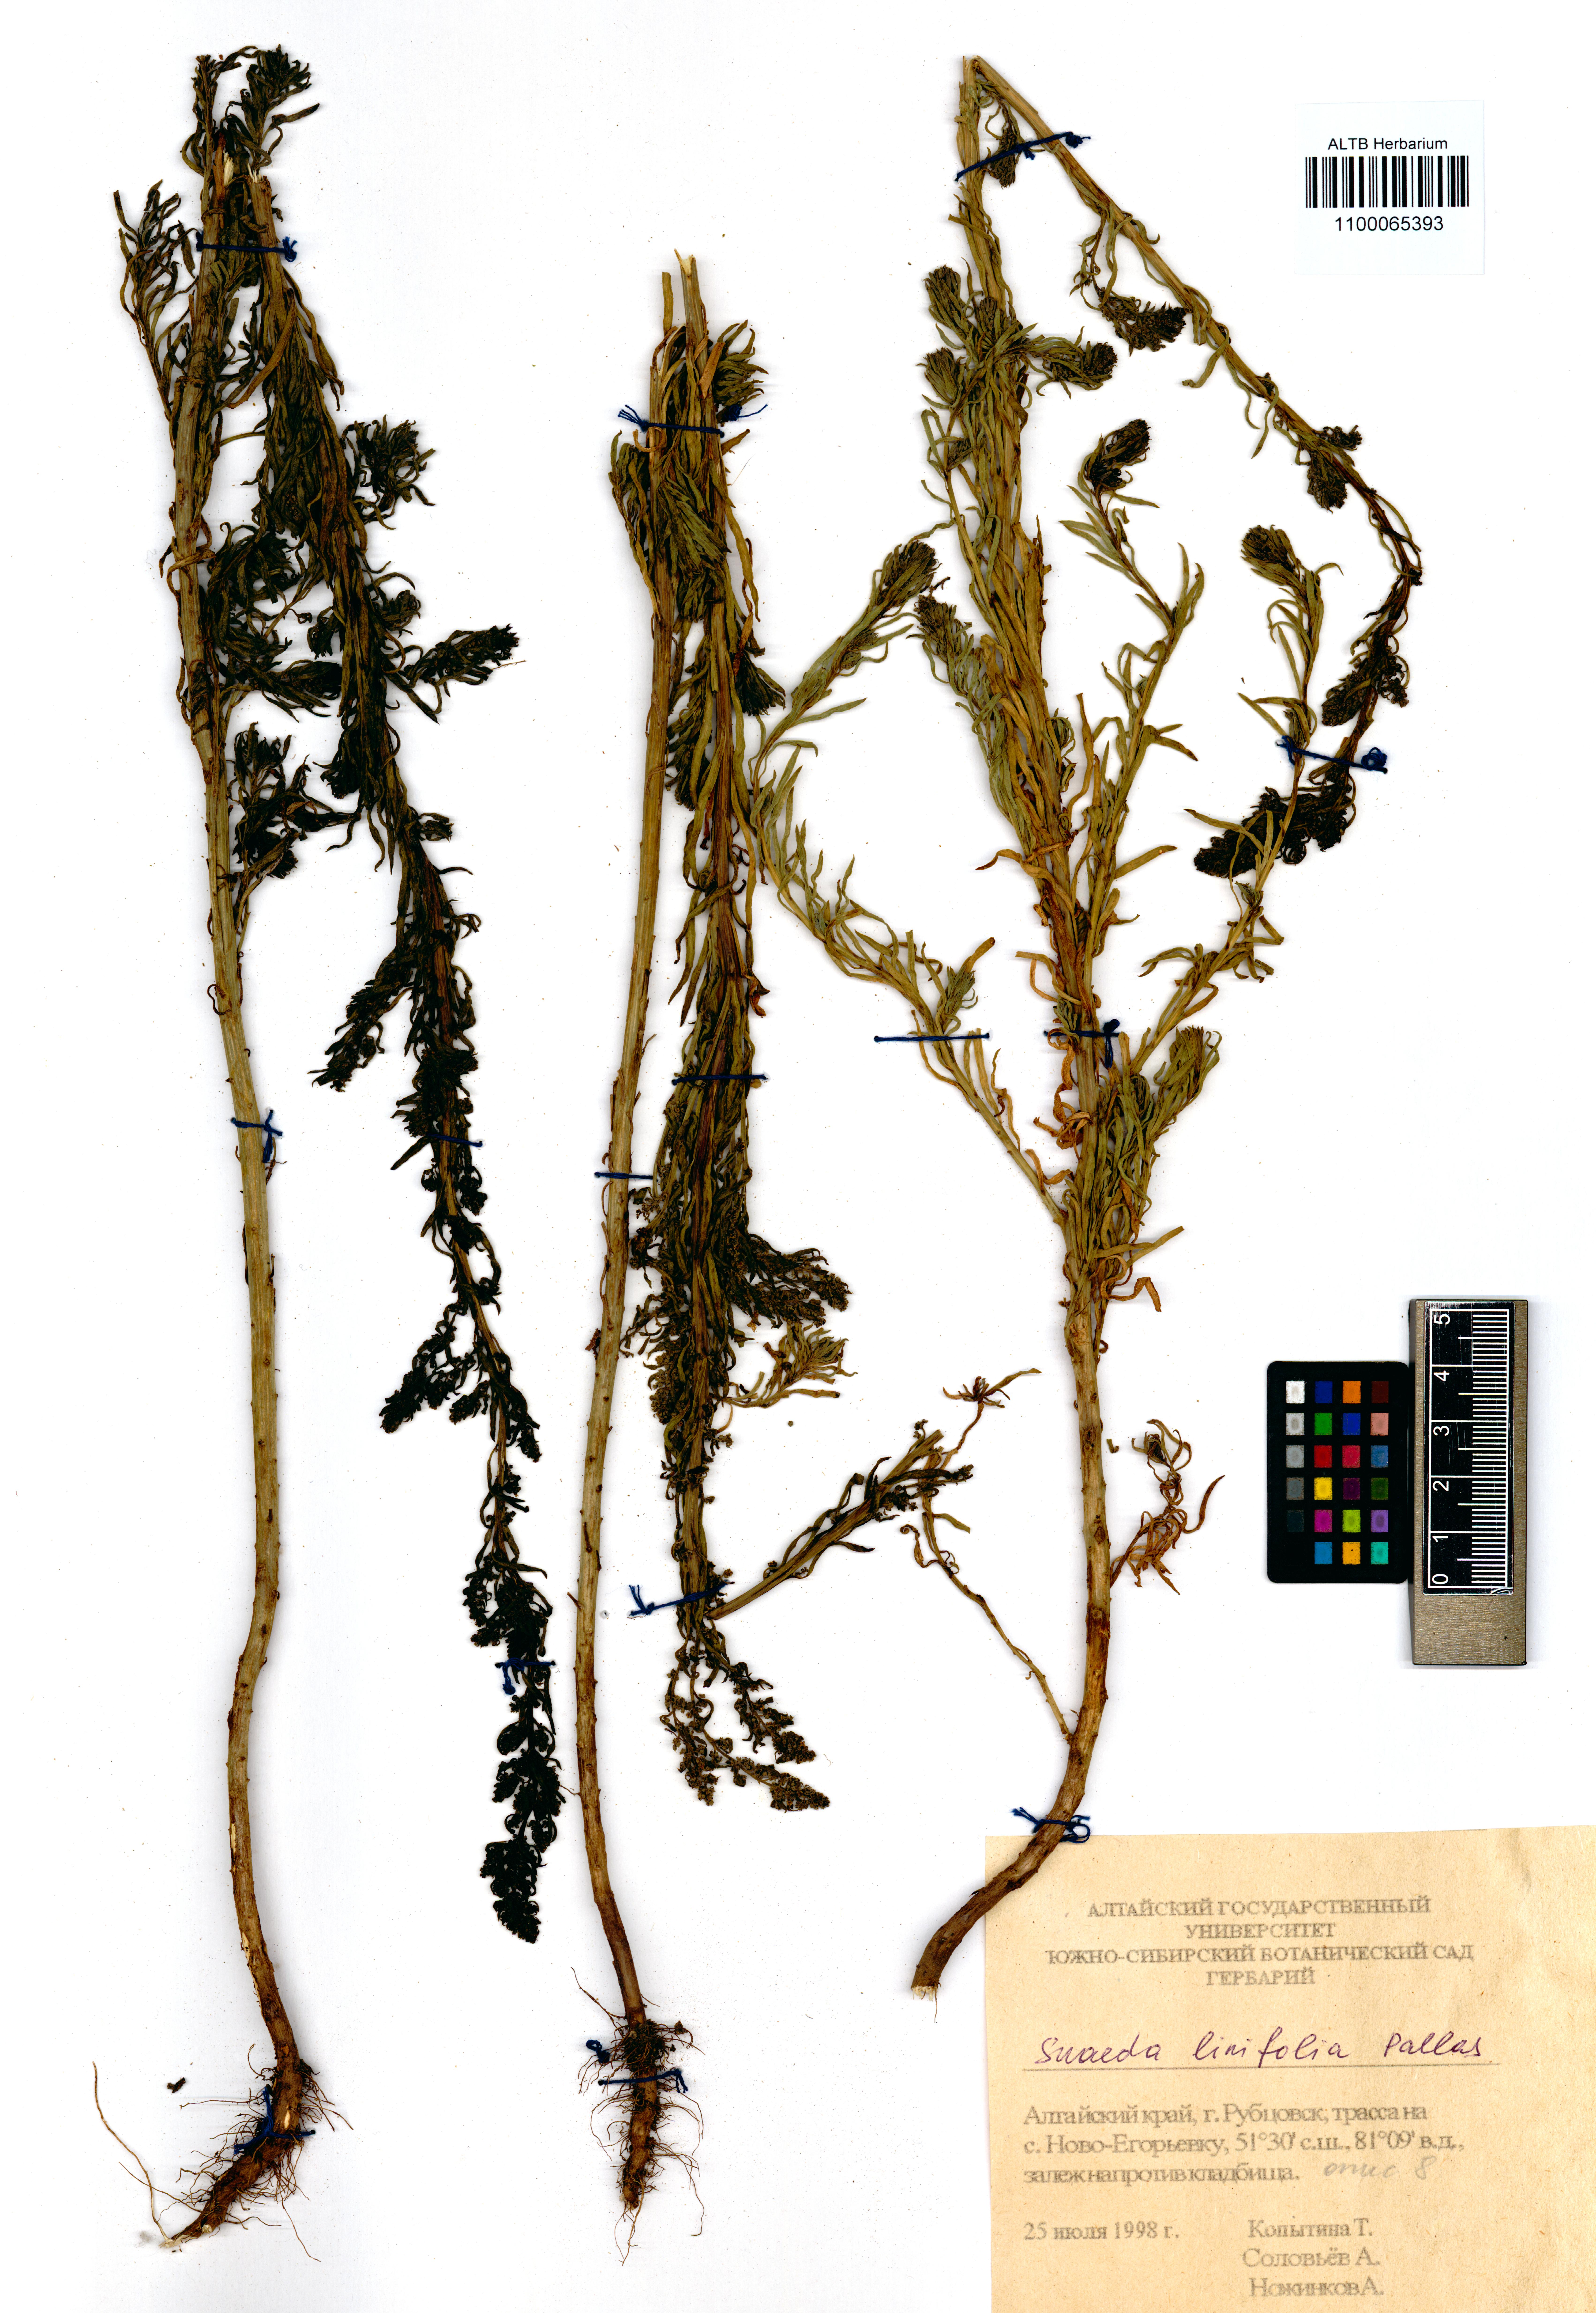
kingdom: Plantae
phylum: Tracheophyta
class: Magnoliopsida
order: Caryophyllales
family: Amaranthaceae
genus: Suaeda
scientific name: Suaeda linifolia
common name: Pin-leaf seepweed
